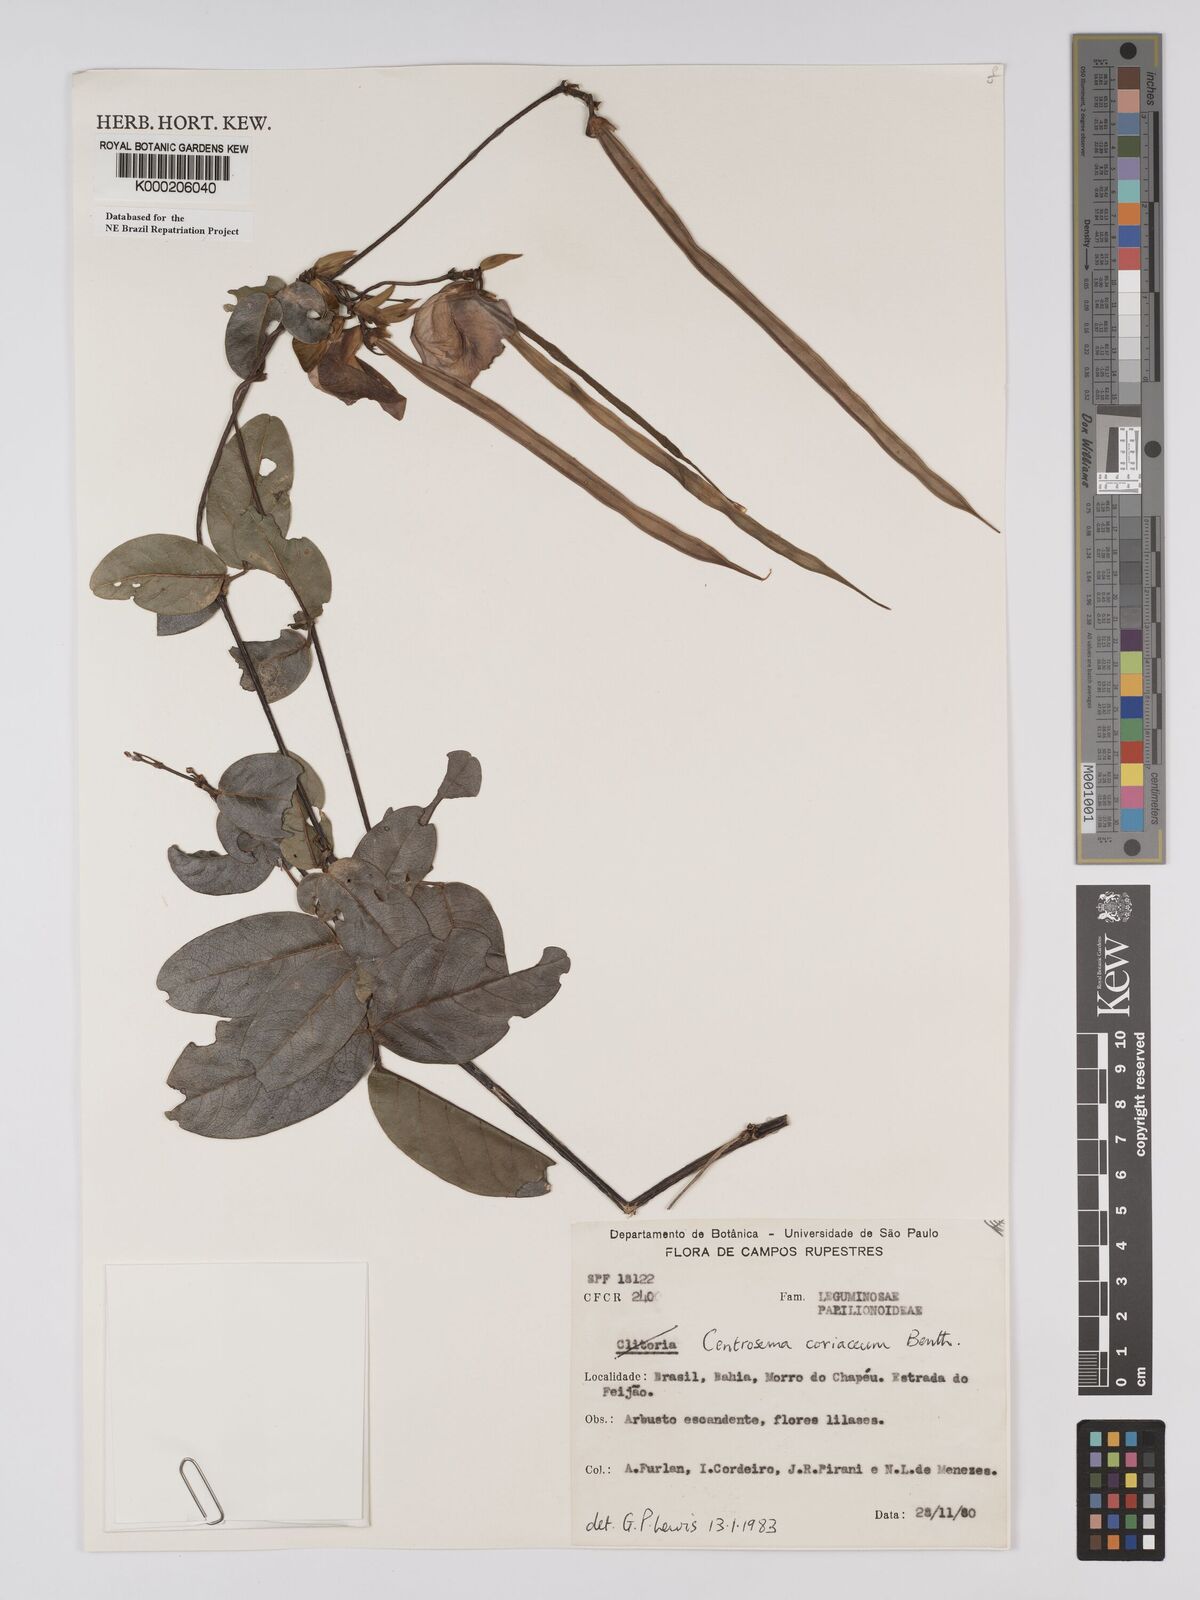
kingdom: Plantae
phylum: Tracheophyta
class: Magnoliopsida
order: Fabales
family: Fabaceae
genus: Centrosema
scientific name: Centrosema coriaceum
